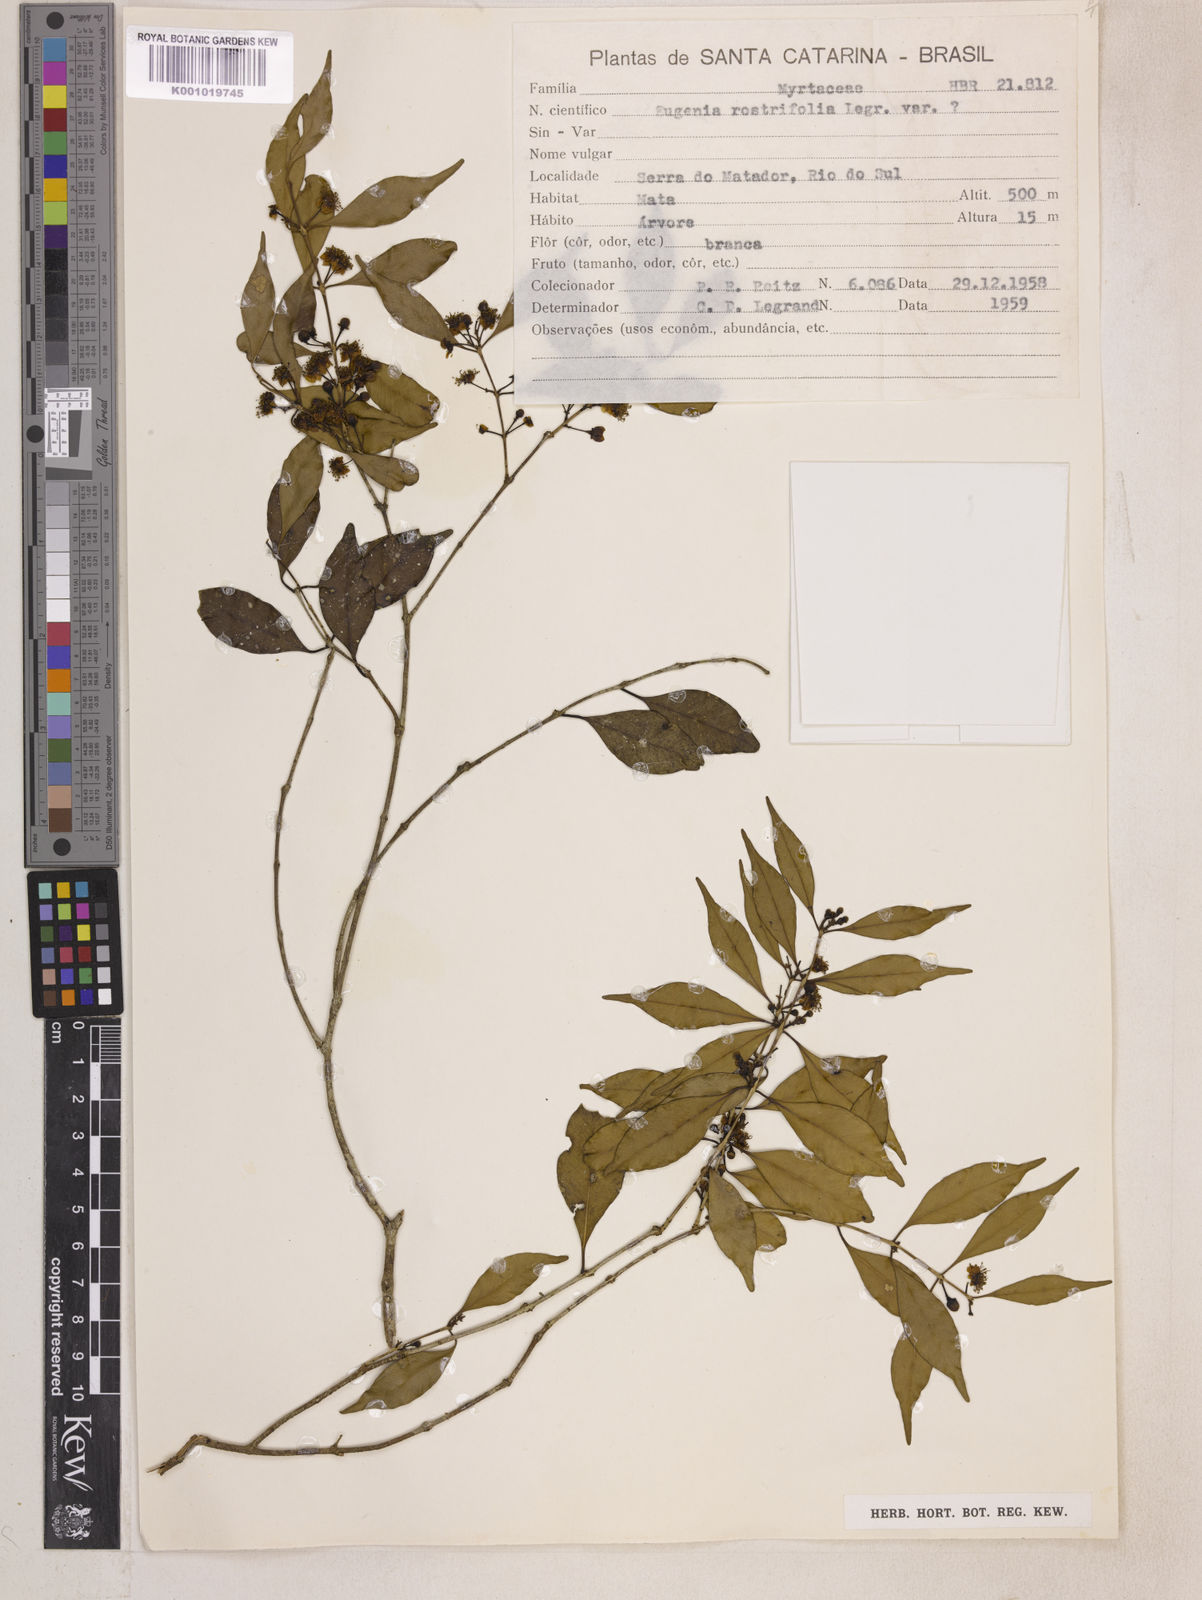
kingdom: Plantae
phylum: Tracheophyta
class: Magnoliopsida
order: Myrtales
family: Myrtaceae
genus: Eugenia
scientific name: Eugenia rostrifolia
